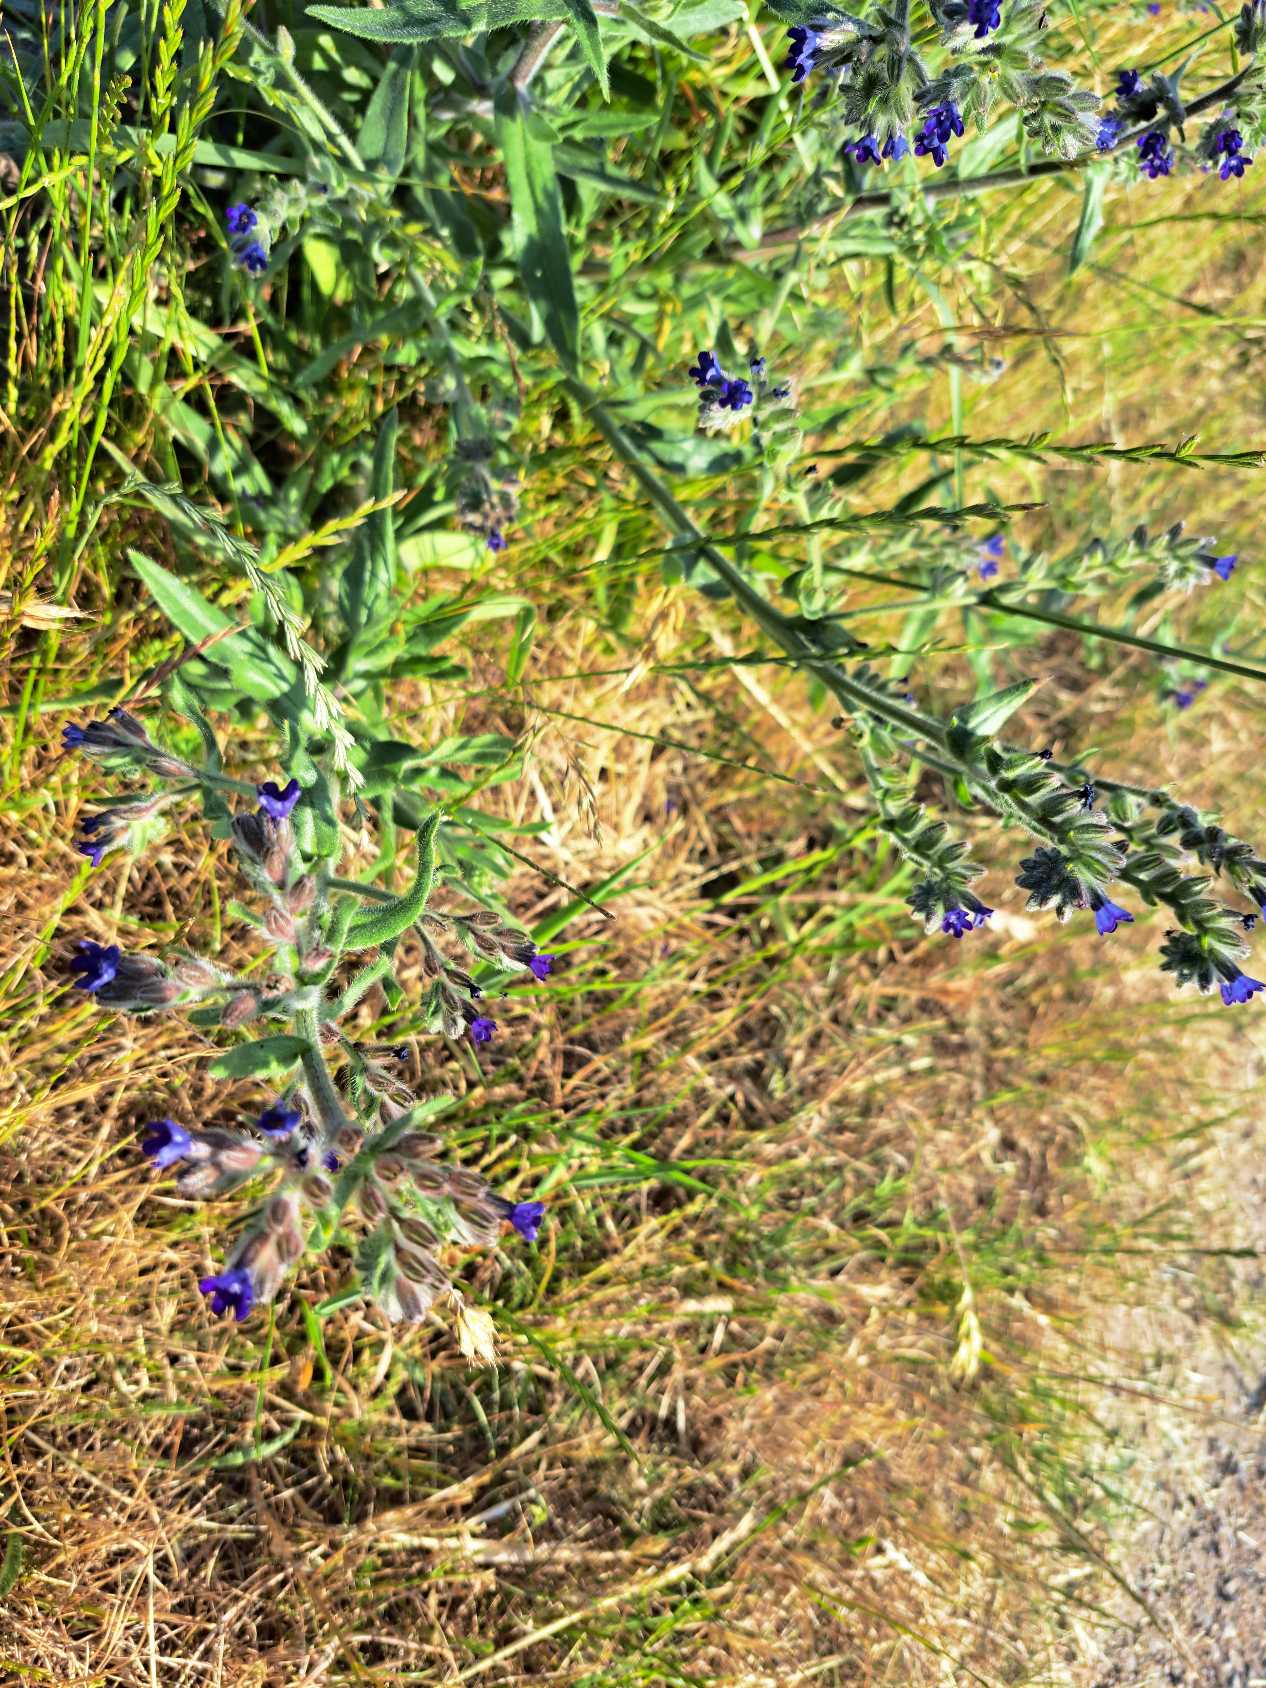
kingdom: Plantae
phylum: Tracheophyta
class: Magnoliopsida
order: Boraginales
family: Boraginaceae
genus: Anchusa
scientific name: Anchusa officinalis
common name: Læge-oksetunge
